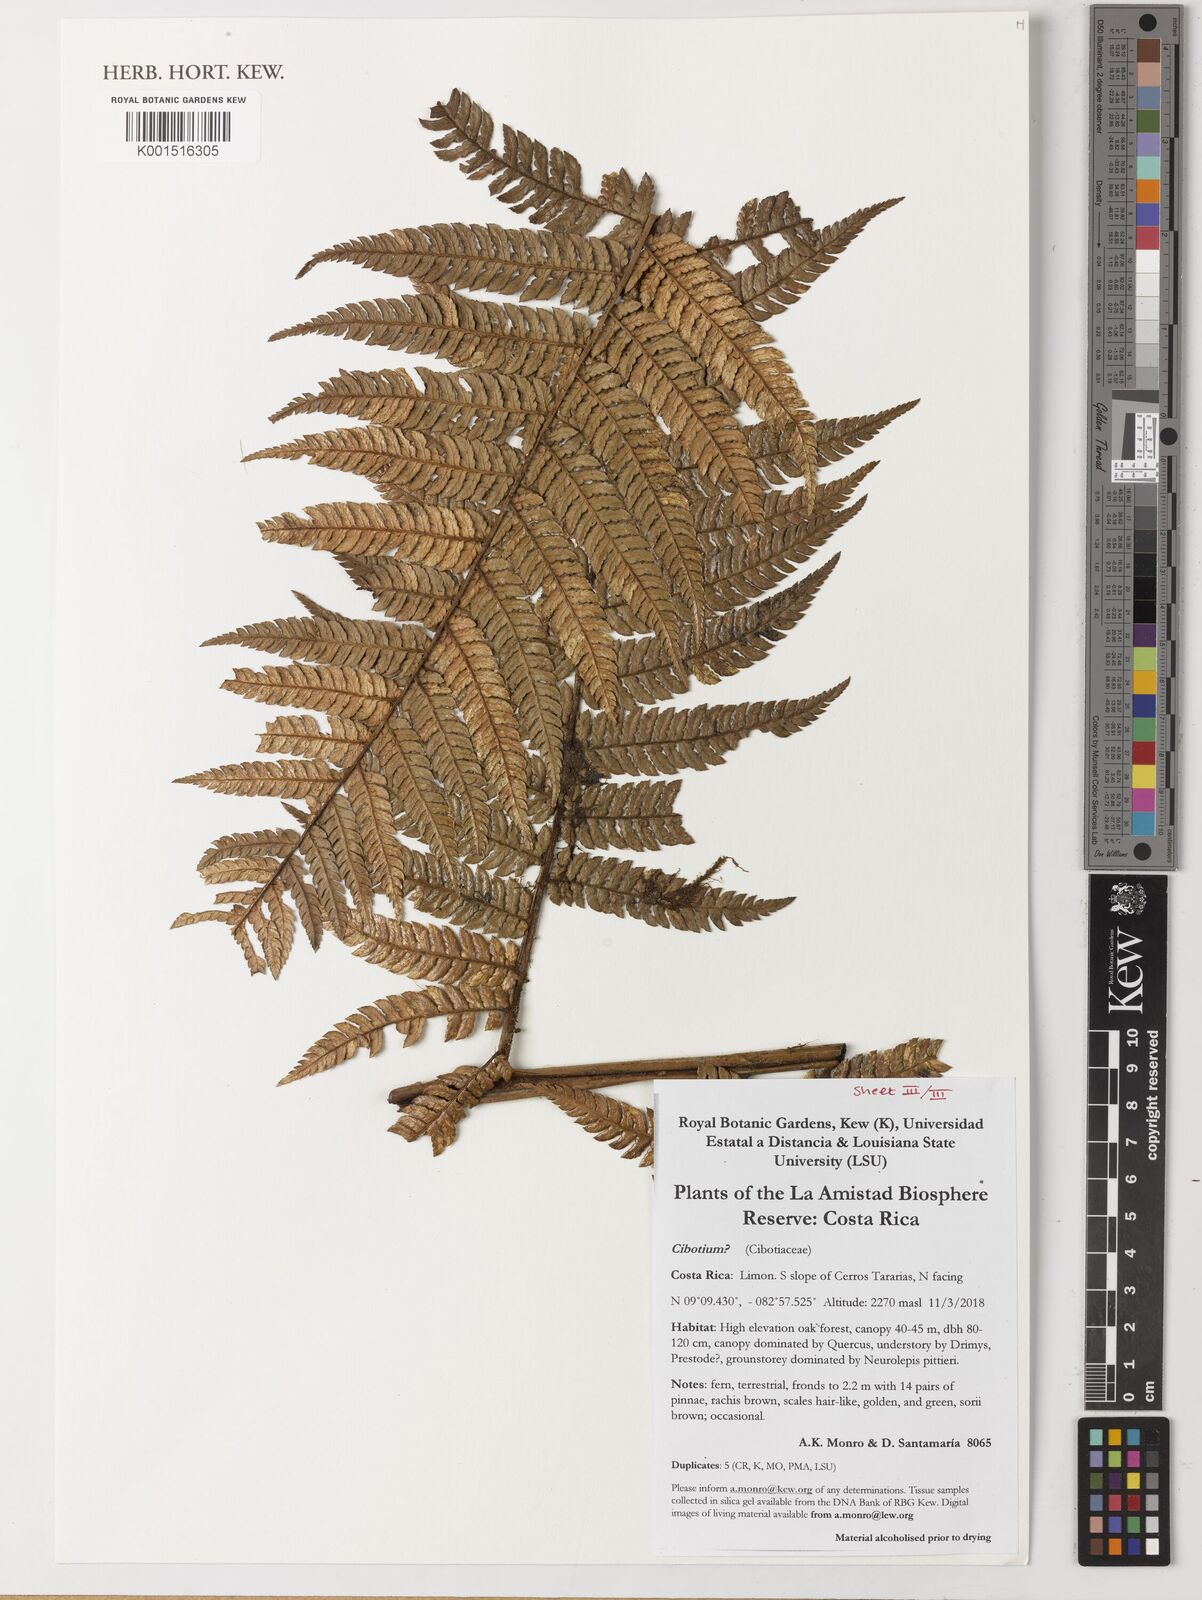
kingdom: Plantae
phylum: Tracheophyta
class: Polypodiopsida
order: Cyatheales
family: Cibotiaceae
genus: Cibotium
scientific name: Cibotium
